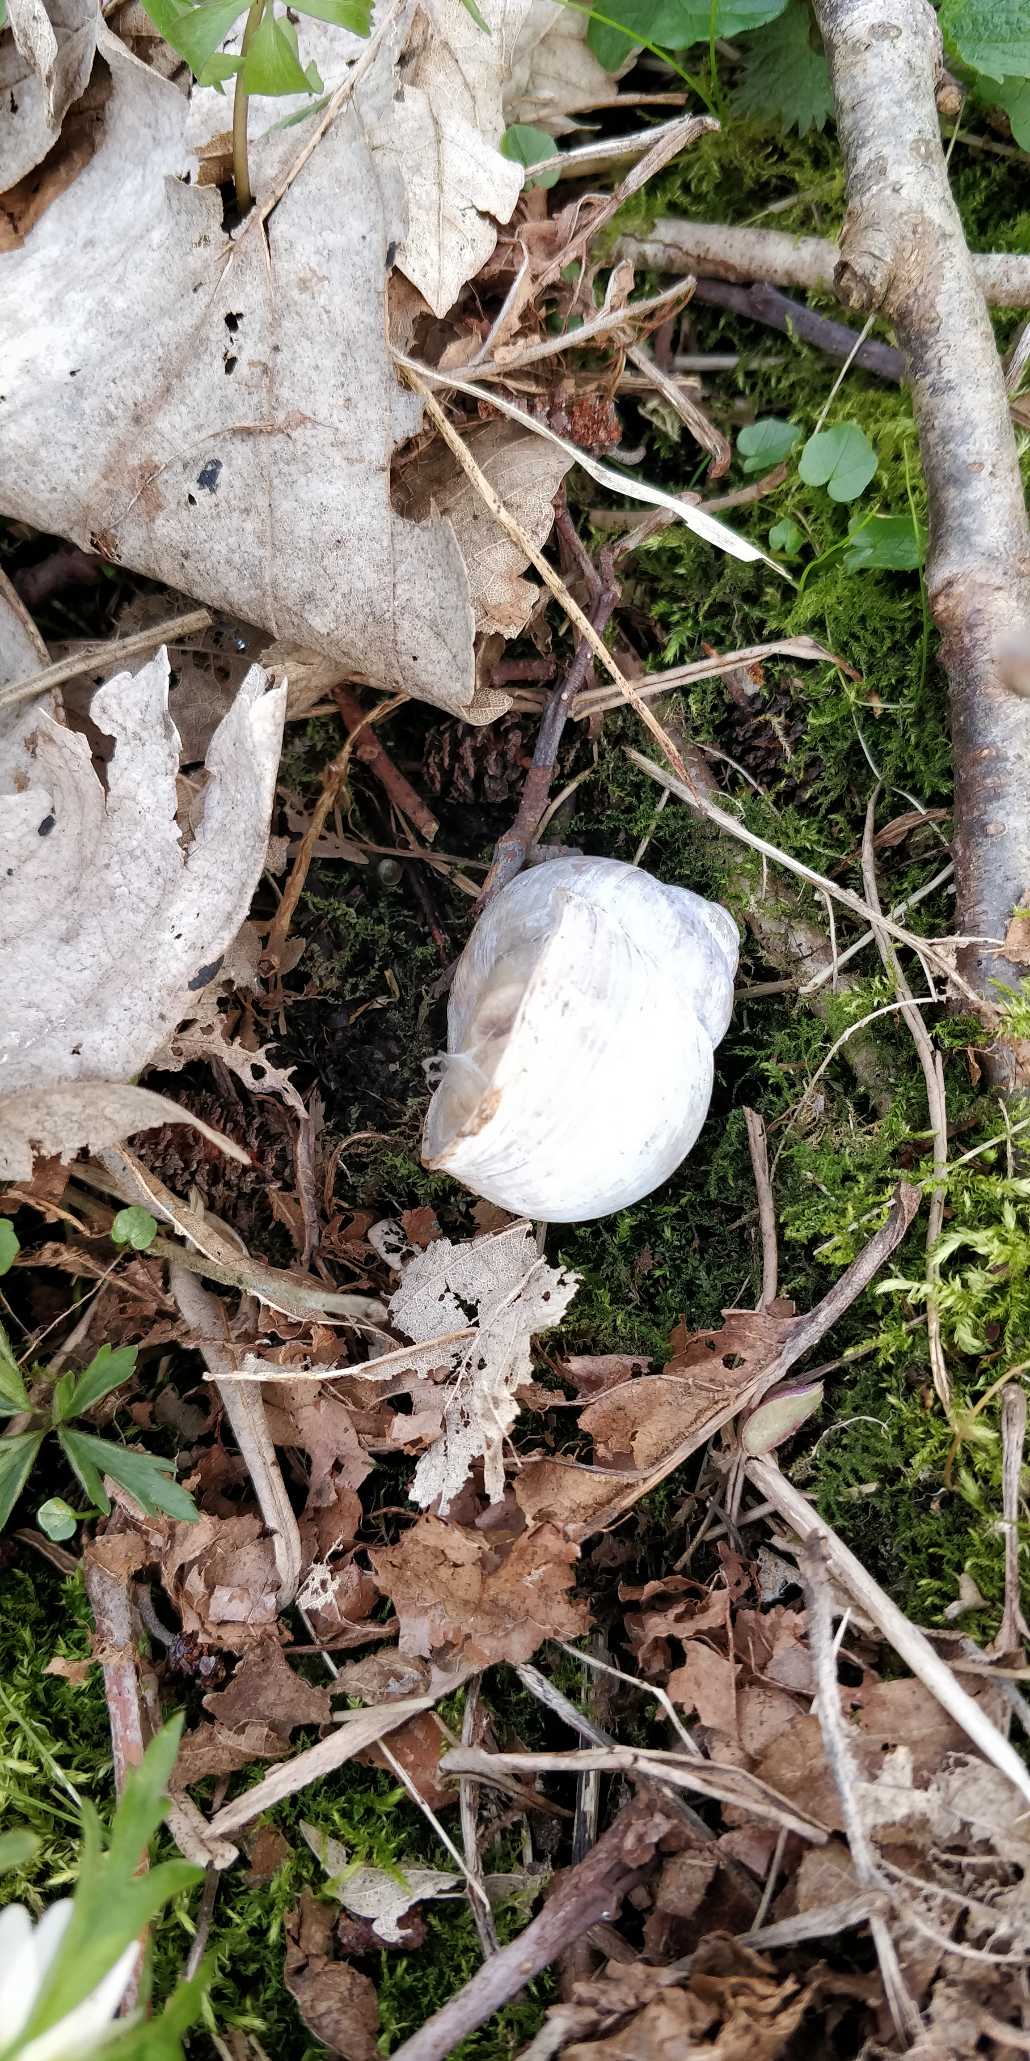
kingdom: Animalia
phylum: Mollusca
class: Gastropoda
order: Stylommatophora
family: Helicidae
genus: Helix
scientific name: Helix pomatia
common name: Vinbjergsnegl
